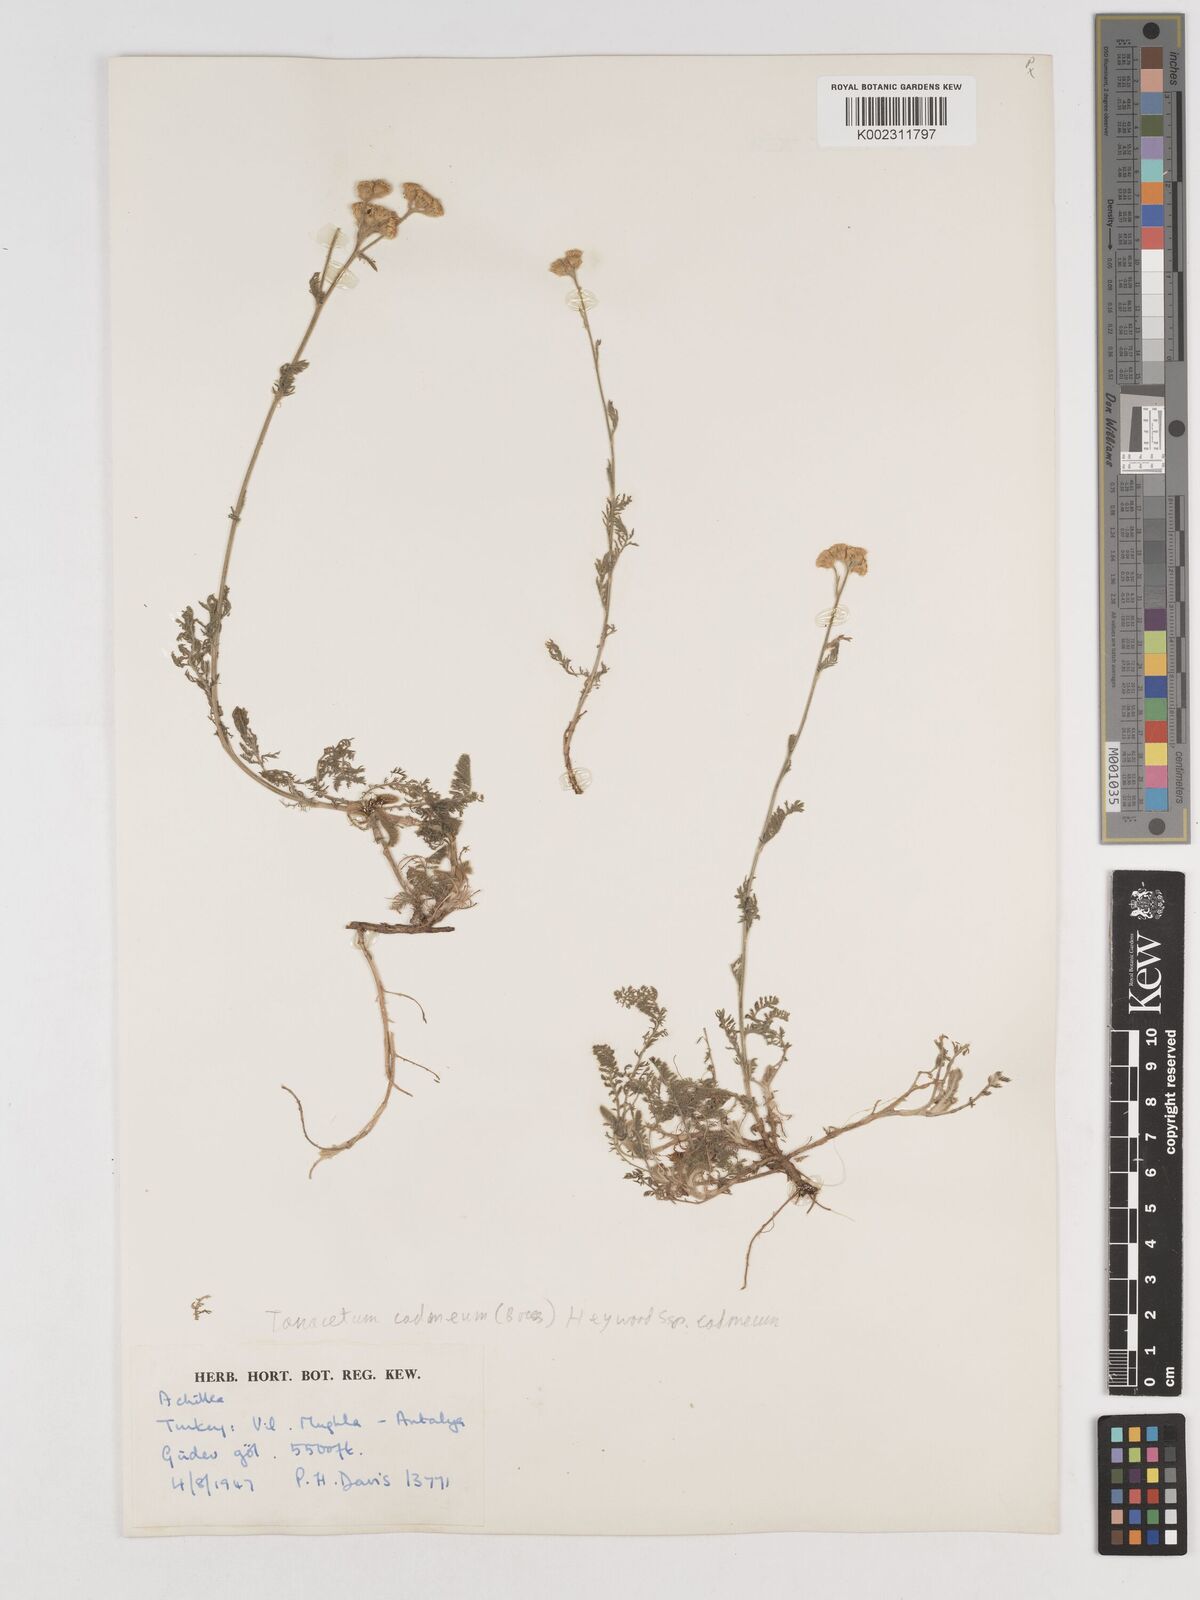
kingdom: Plantae
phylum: Tracheophyta
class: Magnoliopsida
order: Asterales
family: Asteraceae
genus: Tanacetum
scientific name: Tanacetum cadmeum
